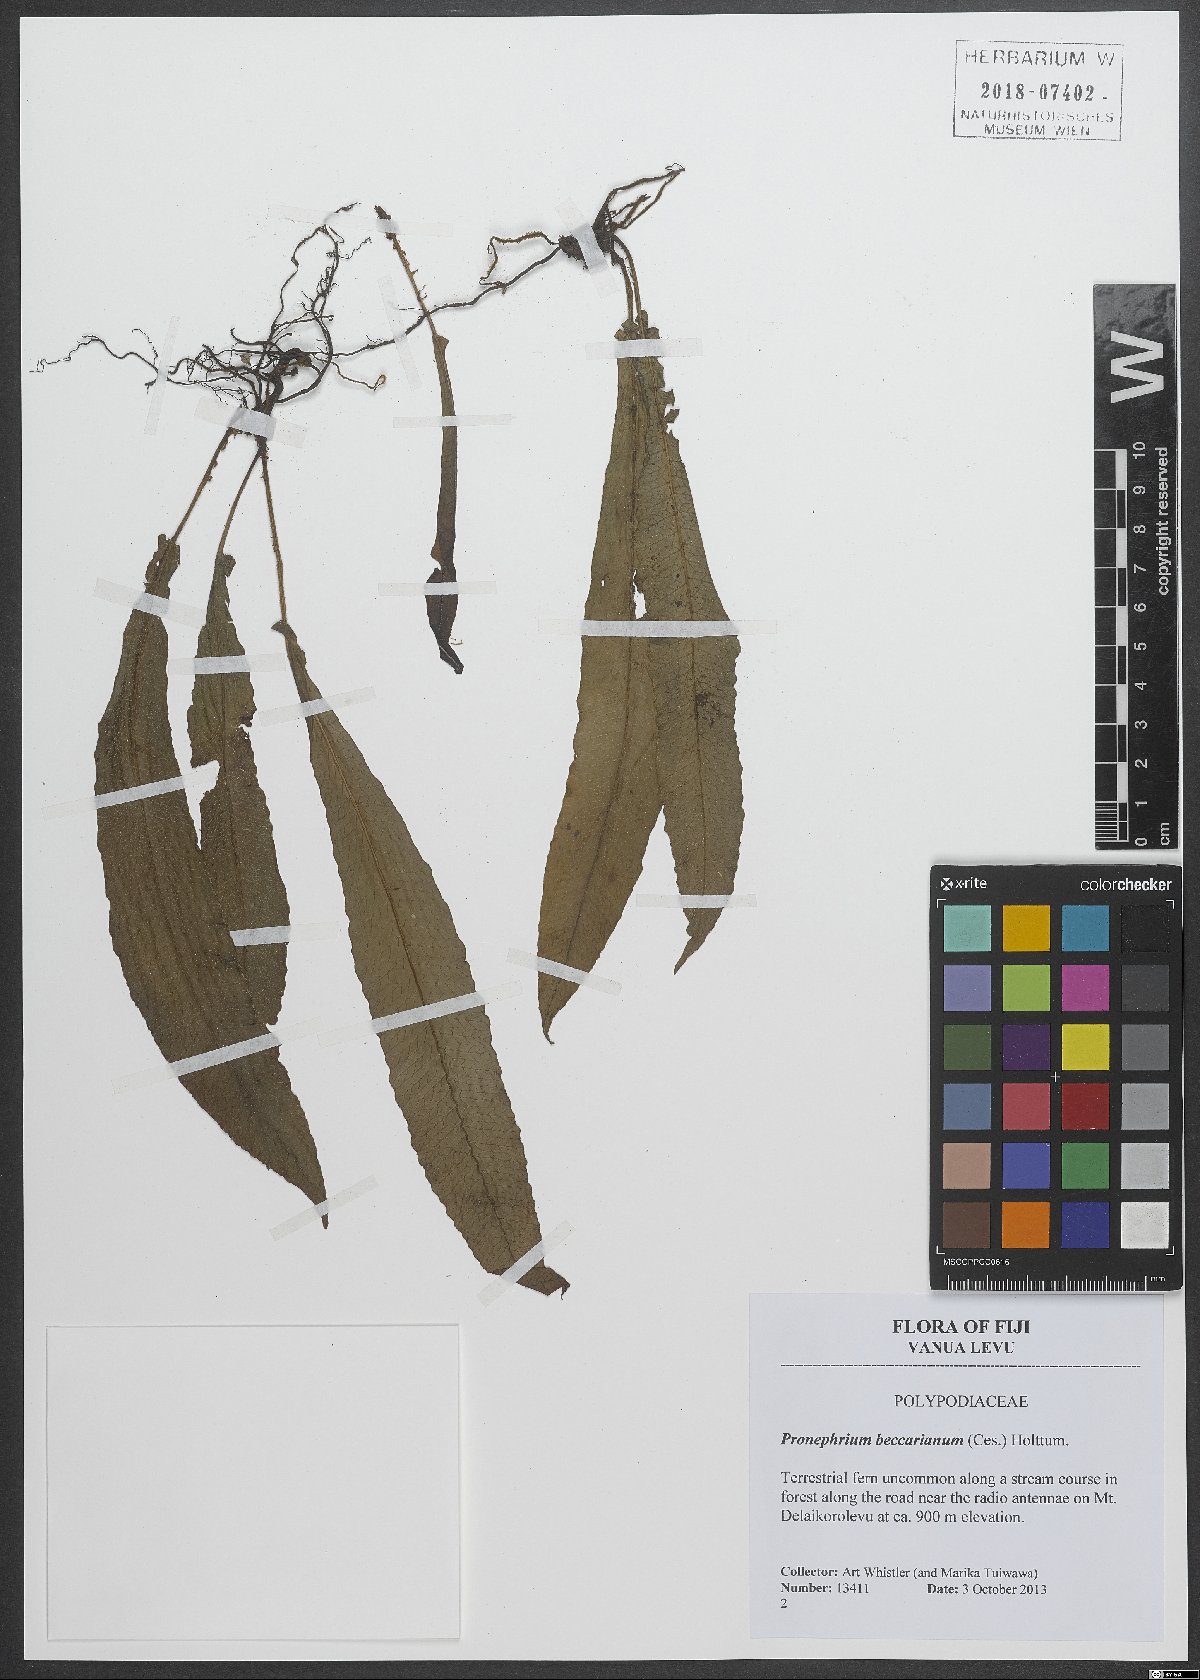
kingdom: Plantae
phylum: Tracheophyta
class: Polypodiopsida
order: Polypodiales
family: Thelypteridaceae
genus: Sphaerostephanos
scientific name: Sphaerostephanos beccarianus
